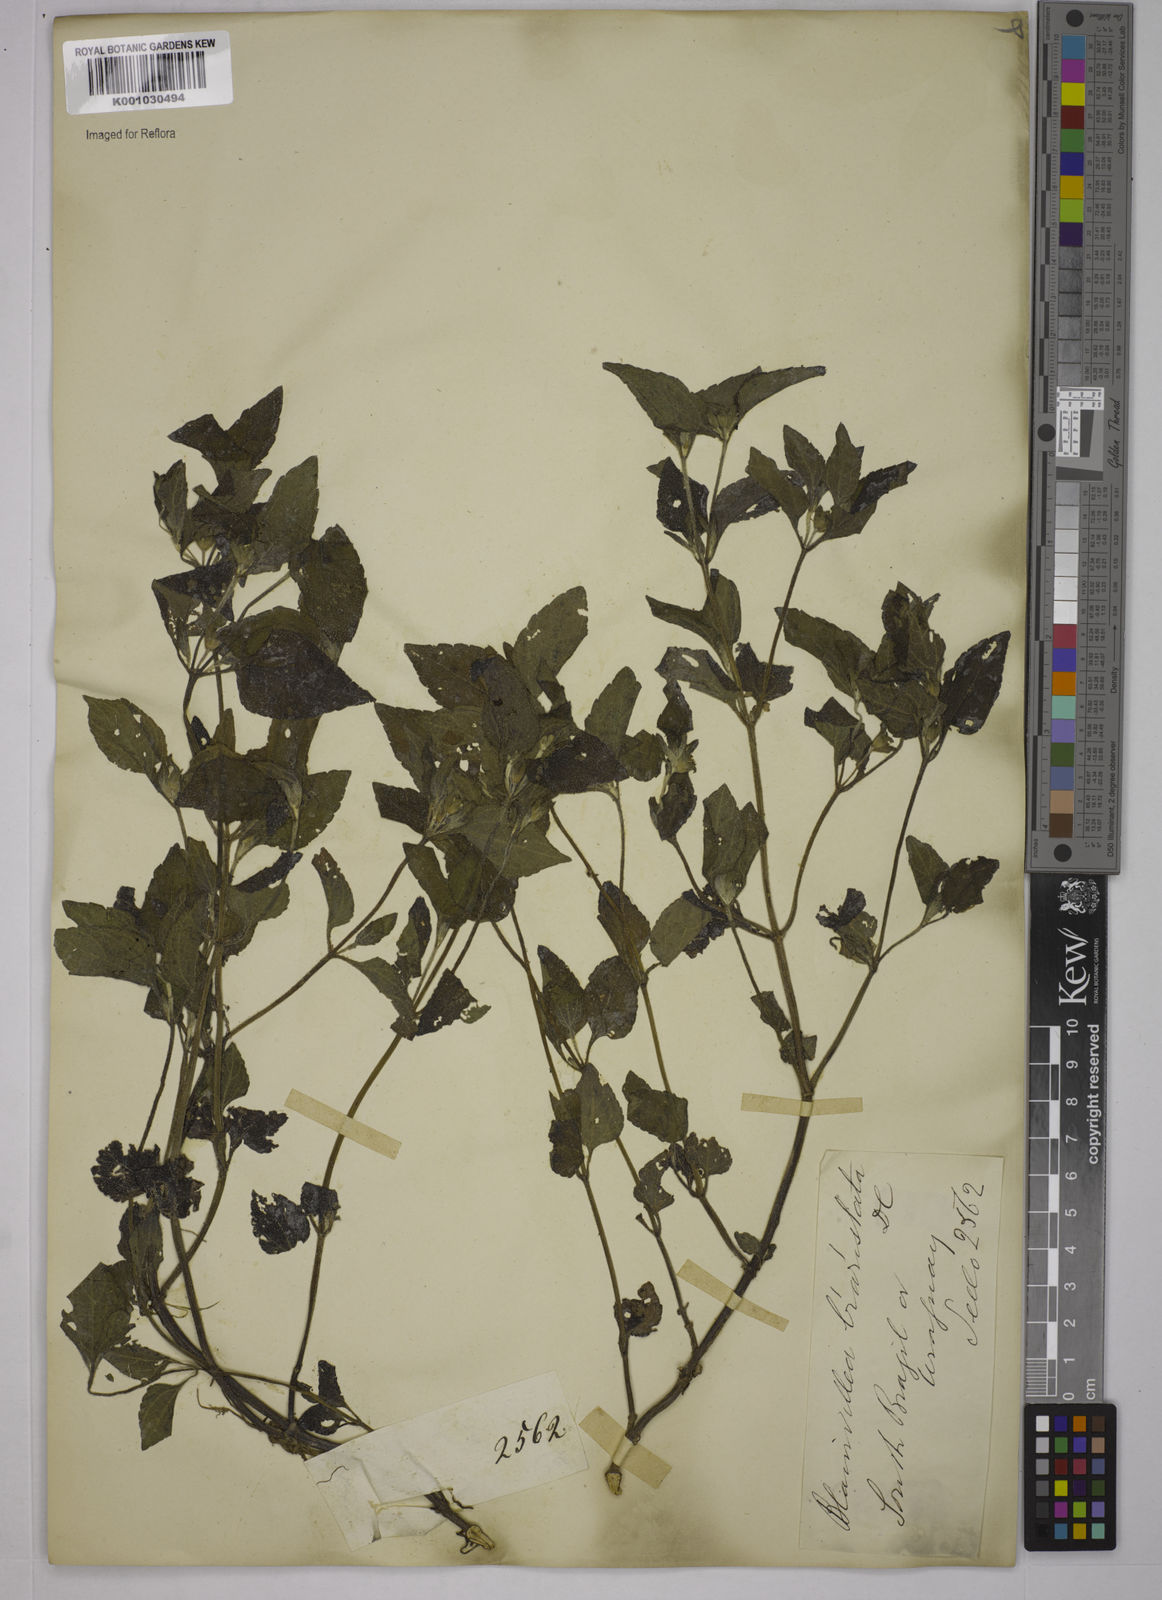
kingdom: Plantae
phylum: Tracheophyta
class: Magnoliopsida
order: Asterales
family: Asteraceae
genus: Blainvillea
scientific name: Blainvillea
